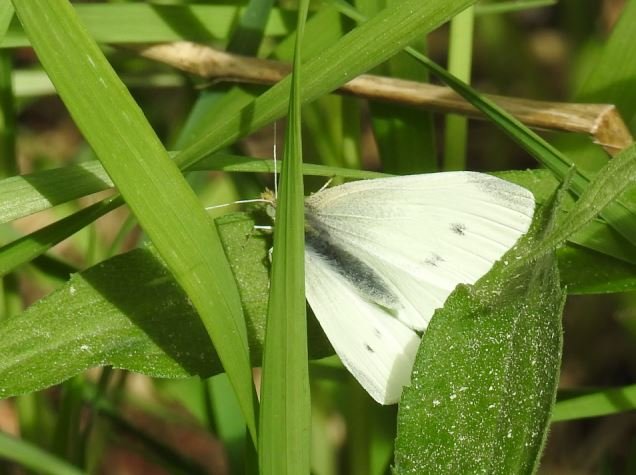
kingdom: Animalia
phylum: Arthropoda
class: Insecta
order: Lepidoptera
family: Pieridae
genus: Pieris
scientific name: Pieris rapae
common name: Cabbage White
